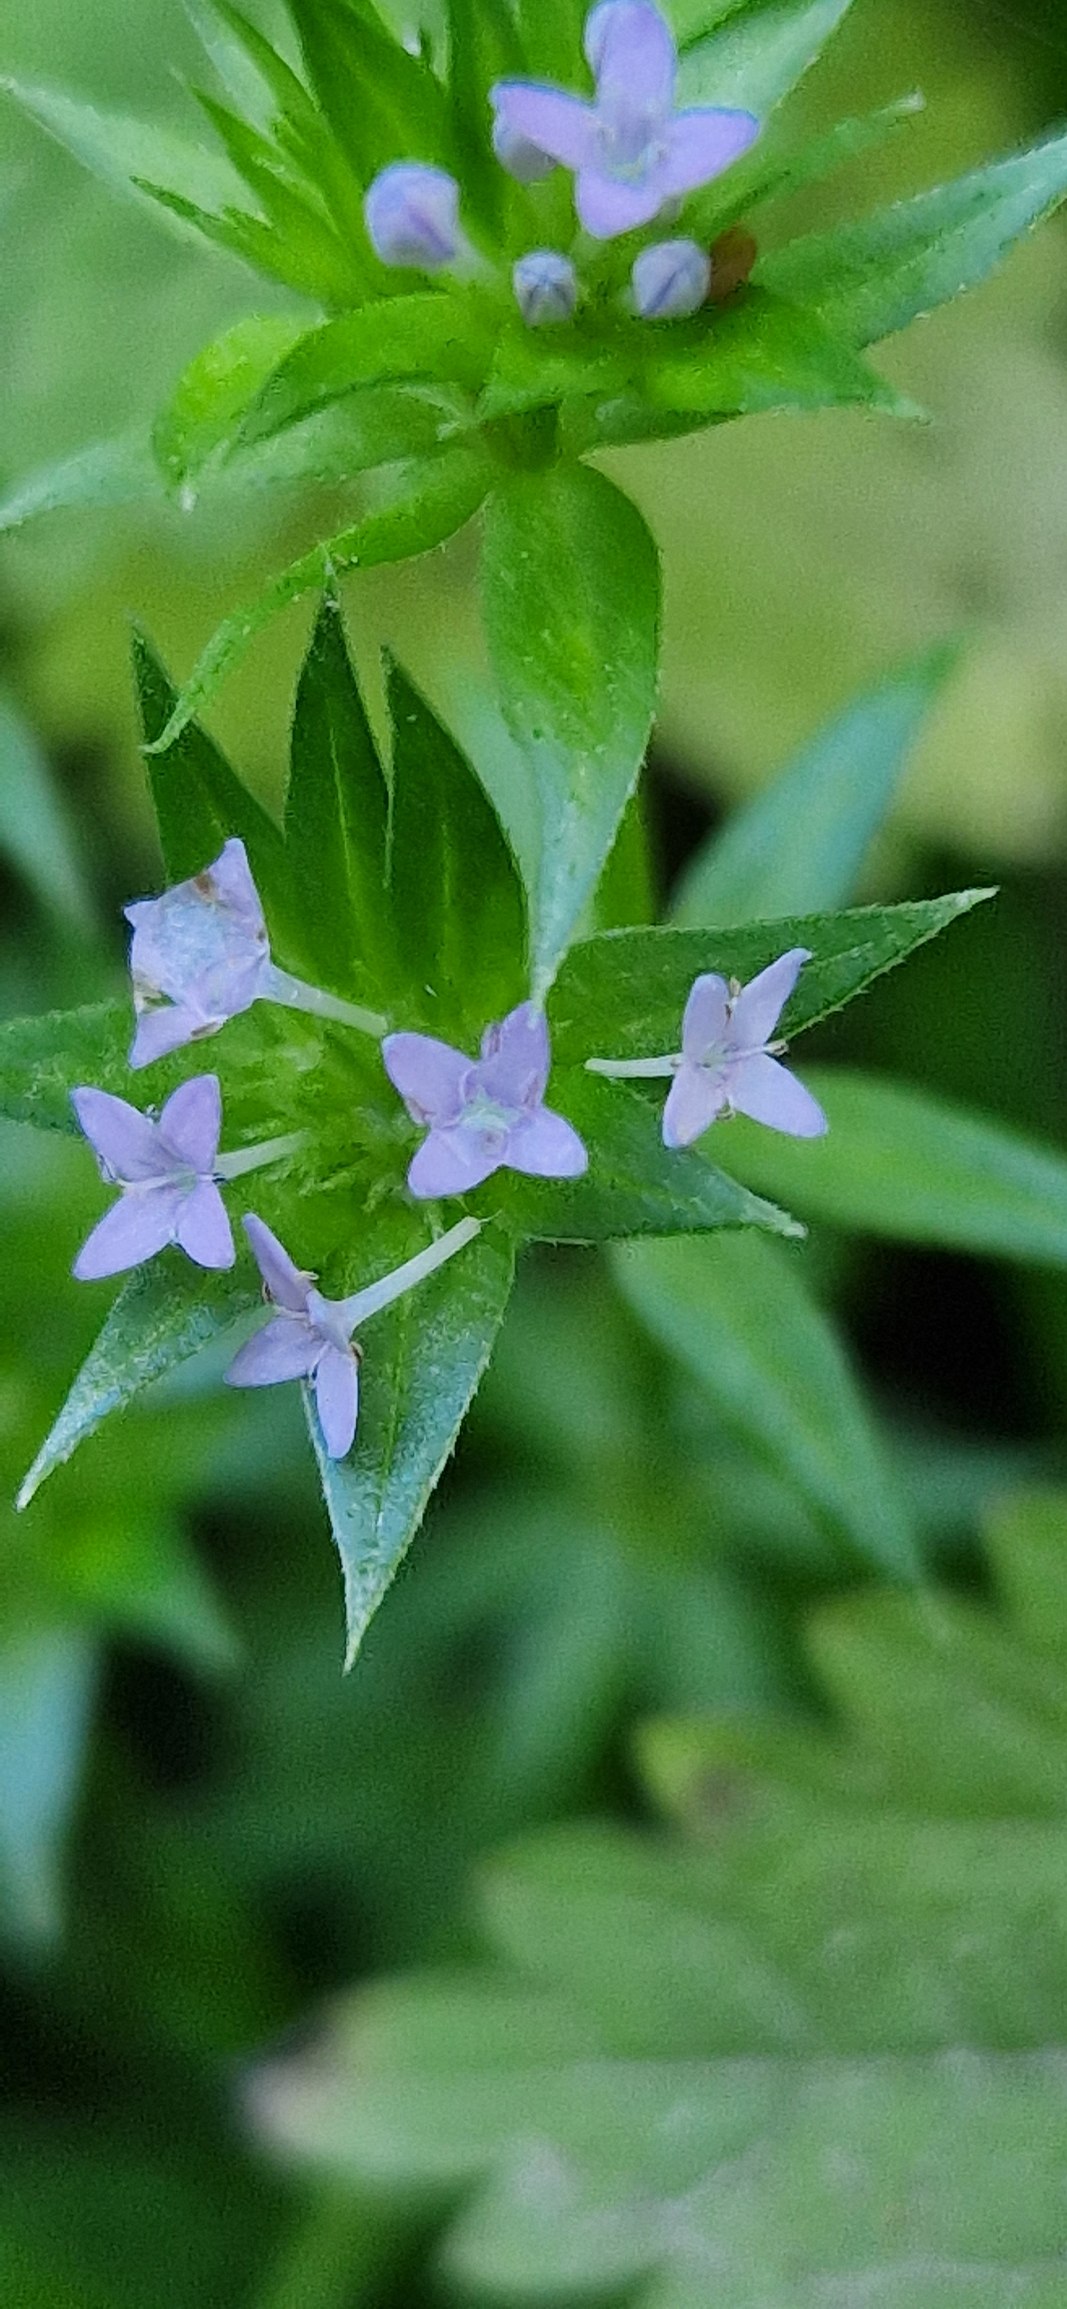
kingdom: Plantae
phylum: Tracheophyta
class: Magnoliopsida
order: Gentianales
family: Rubiaceae
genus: Sherardia
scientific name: Sherardia arvensis
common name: Blåstjerne
